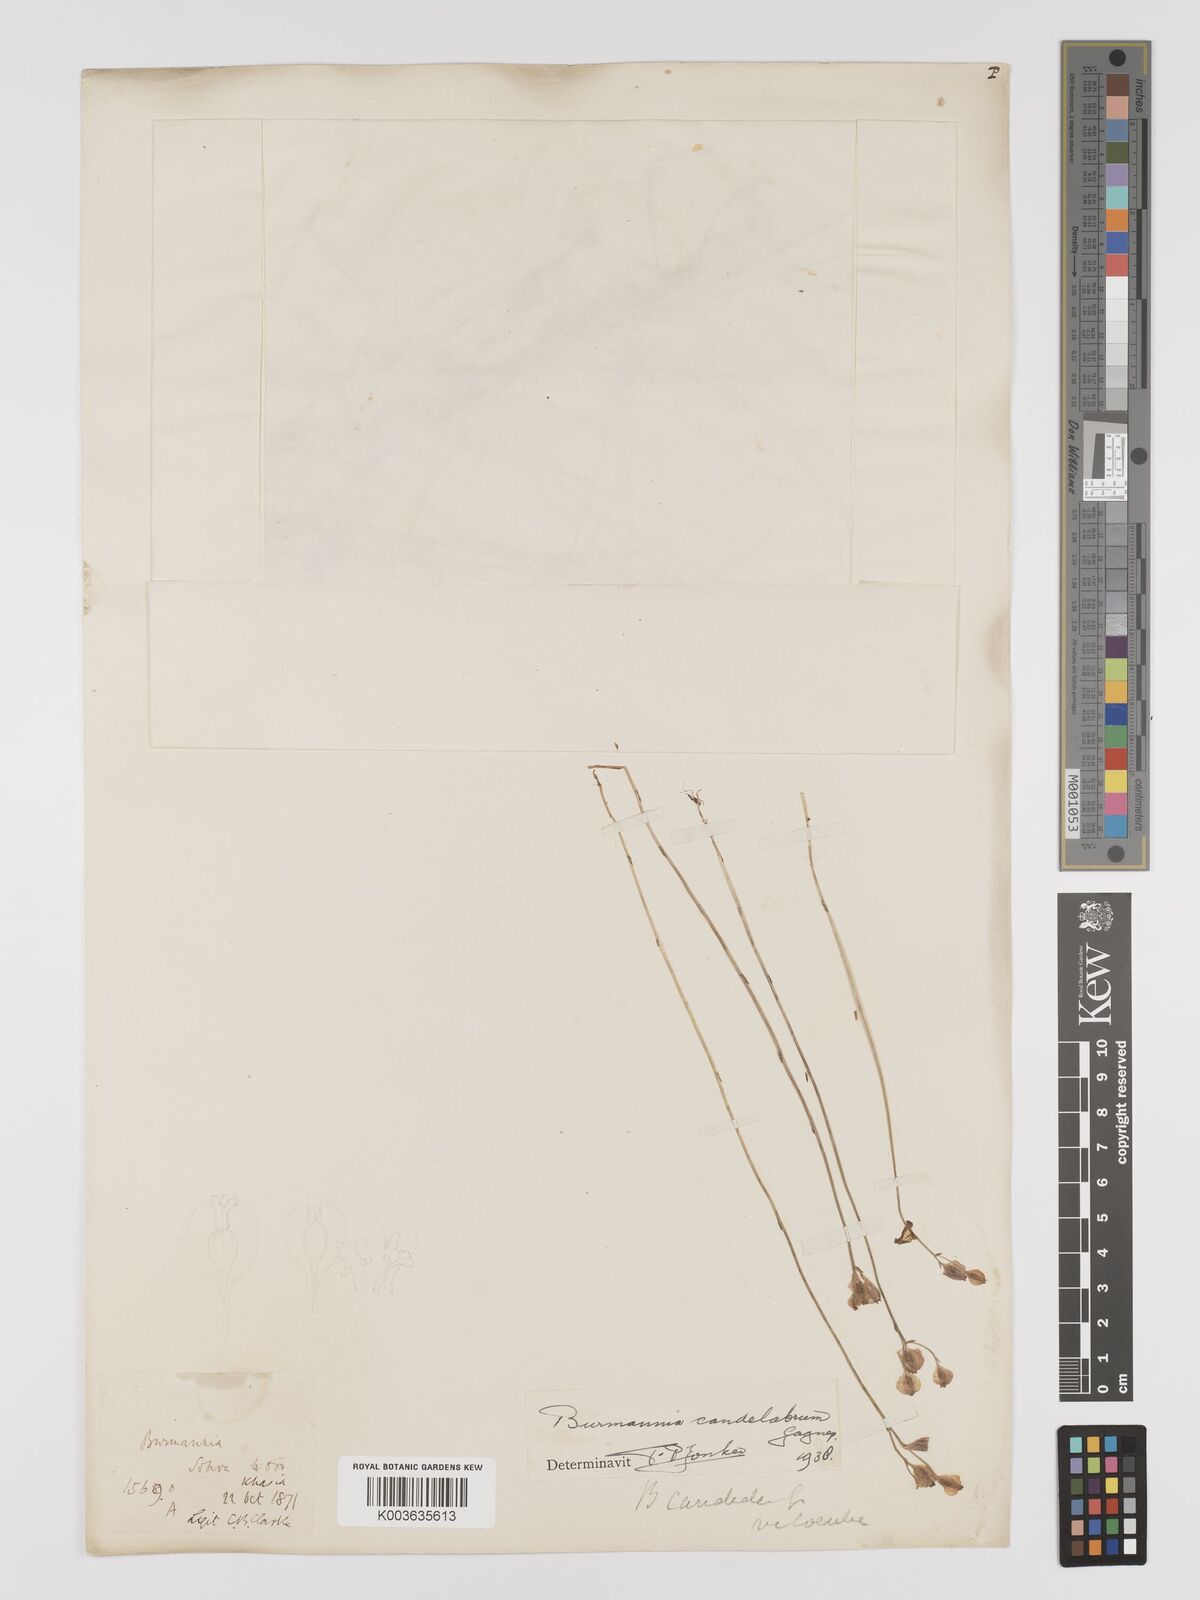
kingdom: Plantae
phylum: Tracheophyta
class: Liliopsida
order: Dioscoreales
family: Burmanniaceae
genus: Burmannia
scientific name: Burmannia candelabrum
